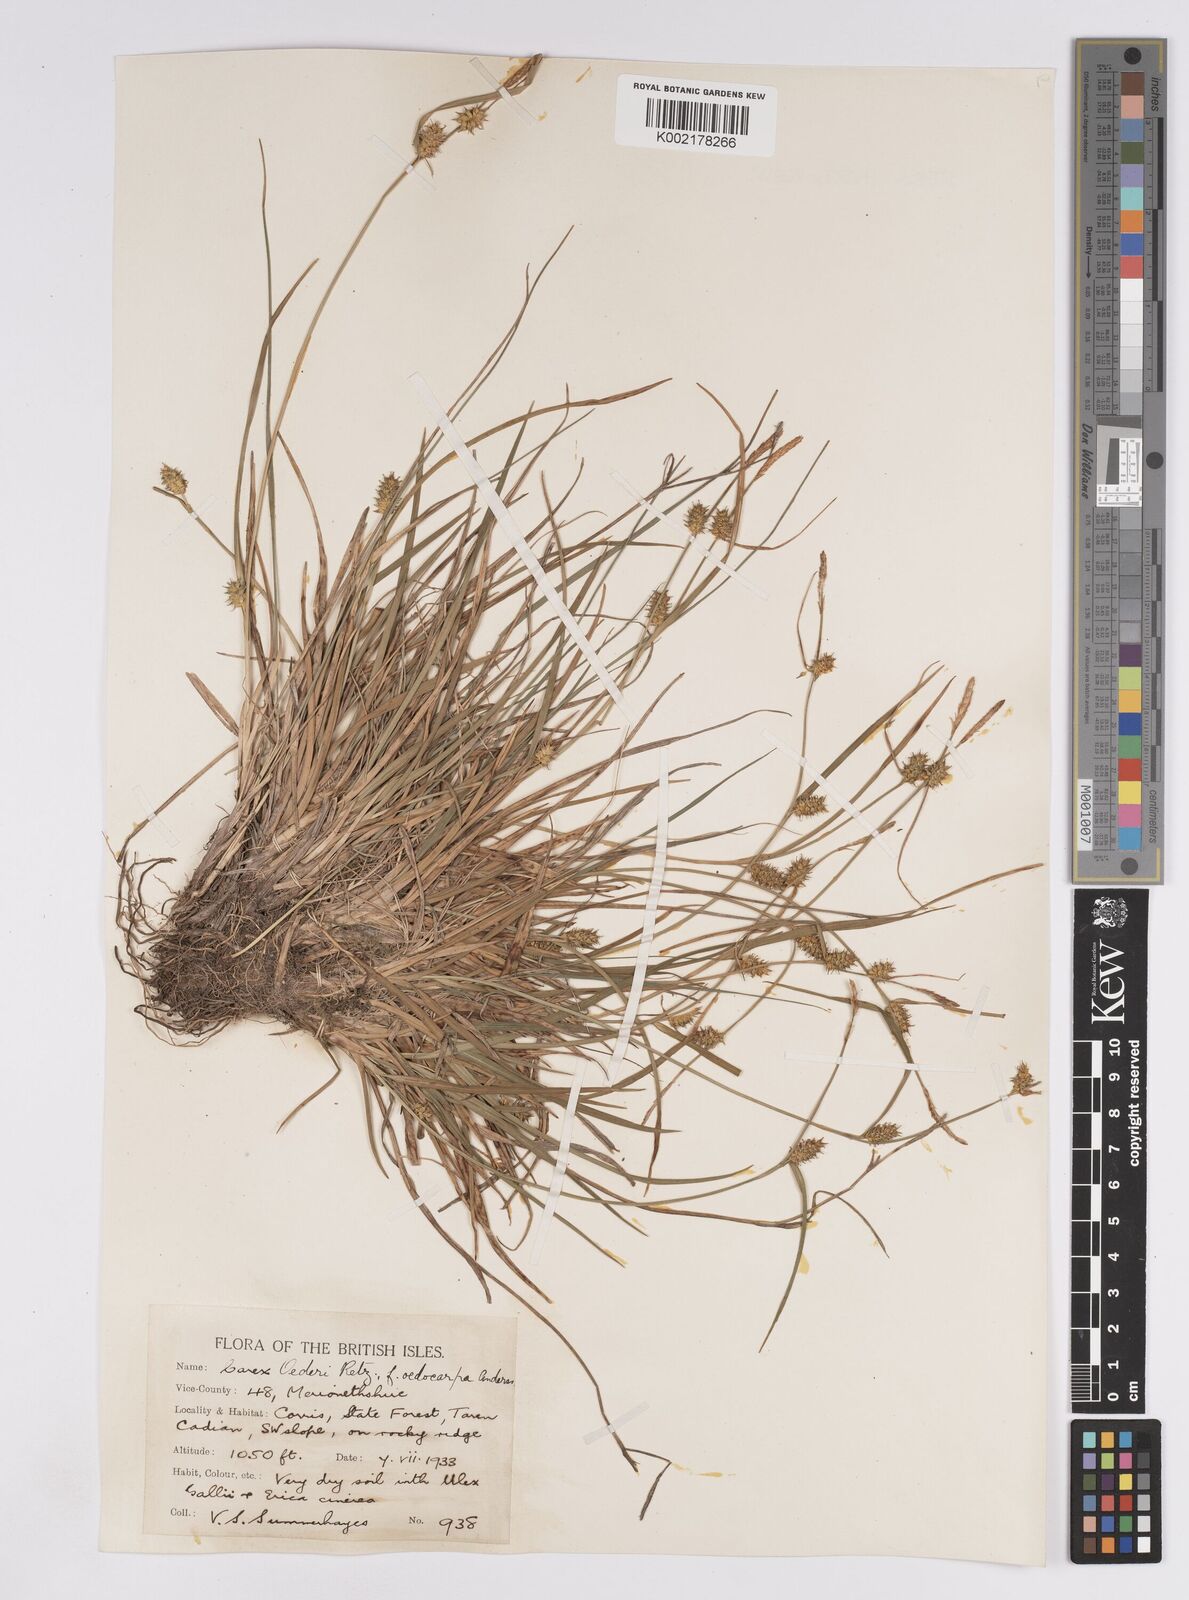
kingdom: Plantae
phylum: Tracheophyta
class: Liliopsida
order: Poales
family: Cyperaceae
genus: Carex
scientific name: Carex demissa
